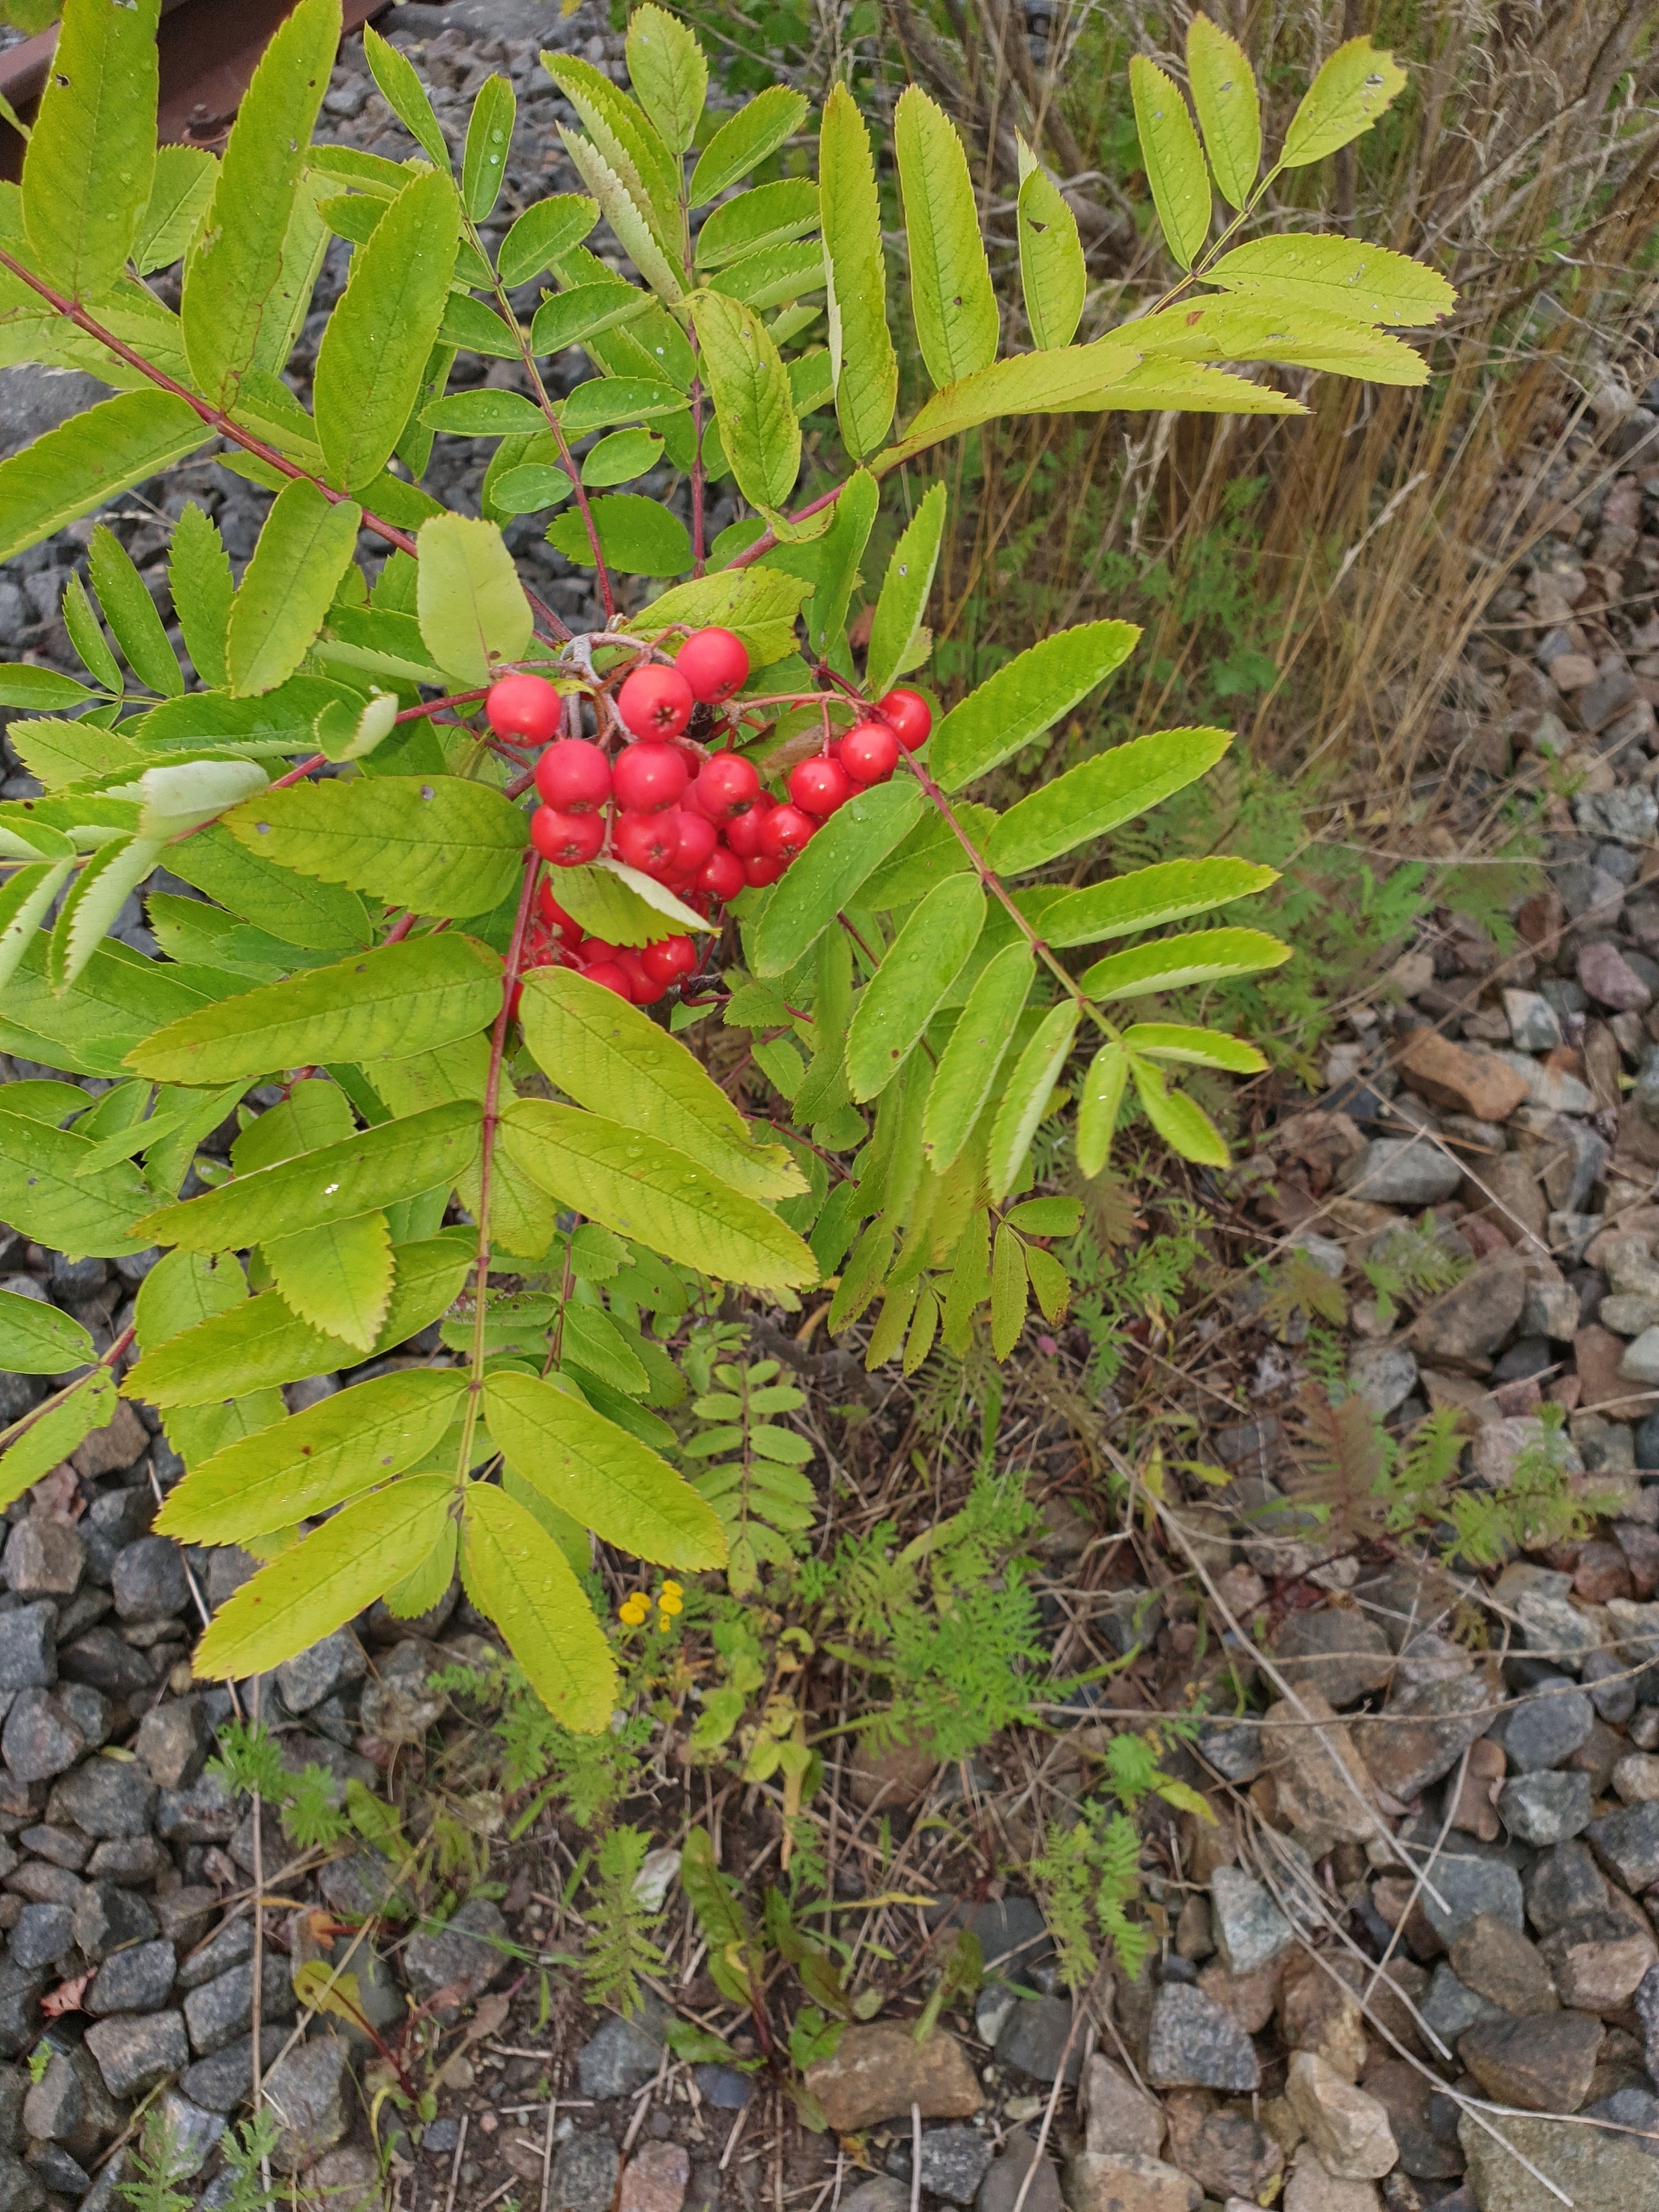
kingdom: Plantae
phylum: Tracheophyta
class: Magnoliopsida
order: Rosales
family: Rosaceae
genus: Sorbus
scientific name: Sorbus aucuparia
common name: Almindelig røn
